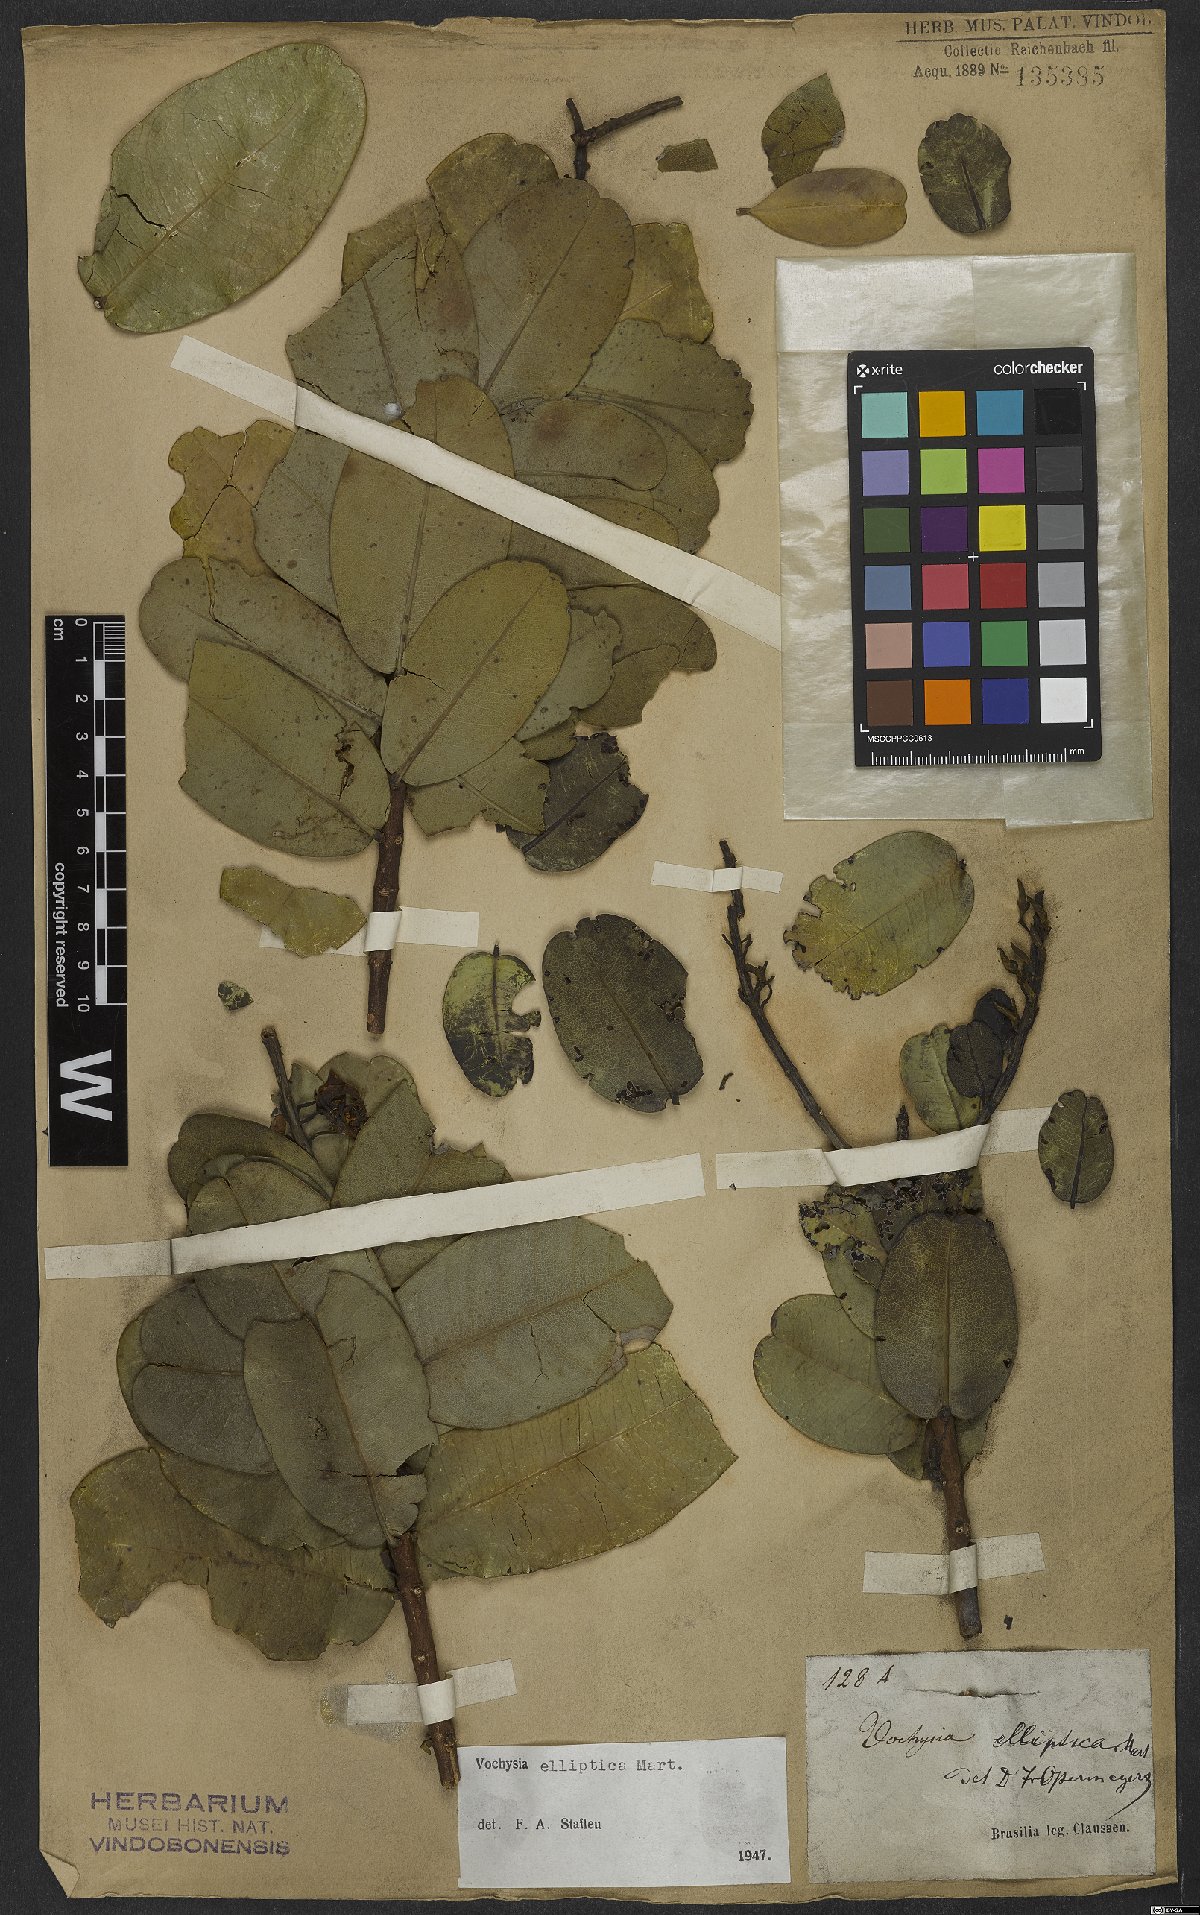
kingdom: Plantae
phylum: Tracheophyta
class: Magnoliopsida
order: Myrtales
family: Vochysiaceae
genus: Vochysia
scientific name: Vochysia elliptica
